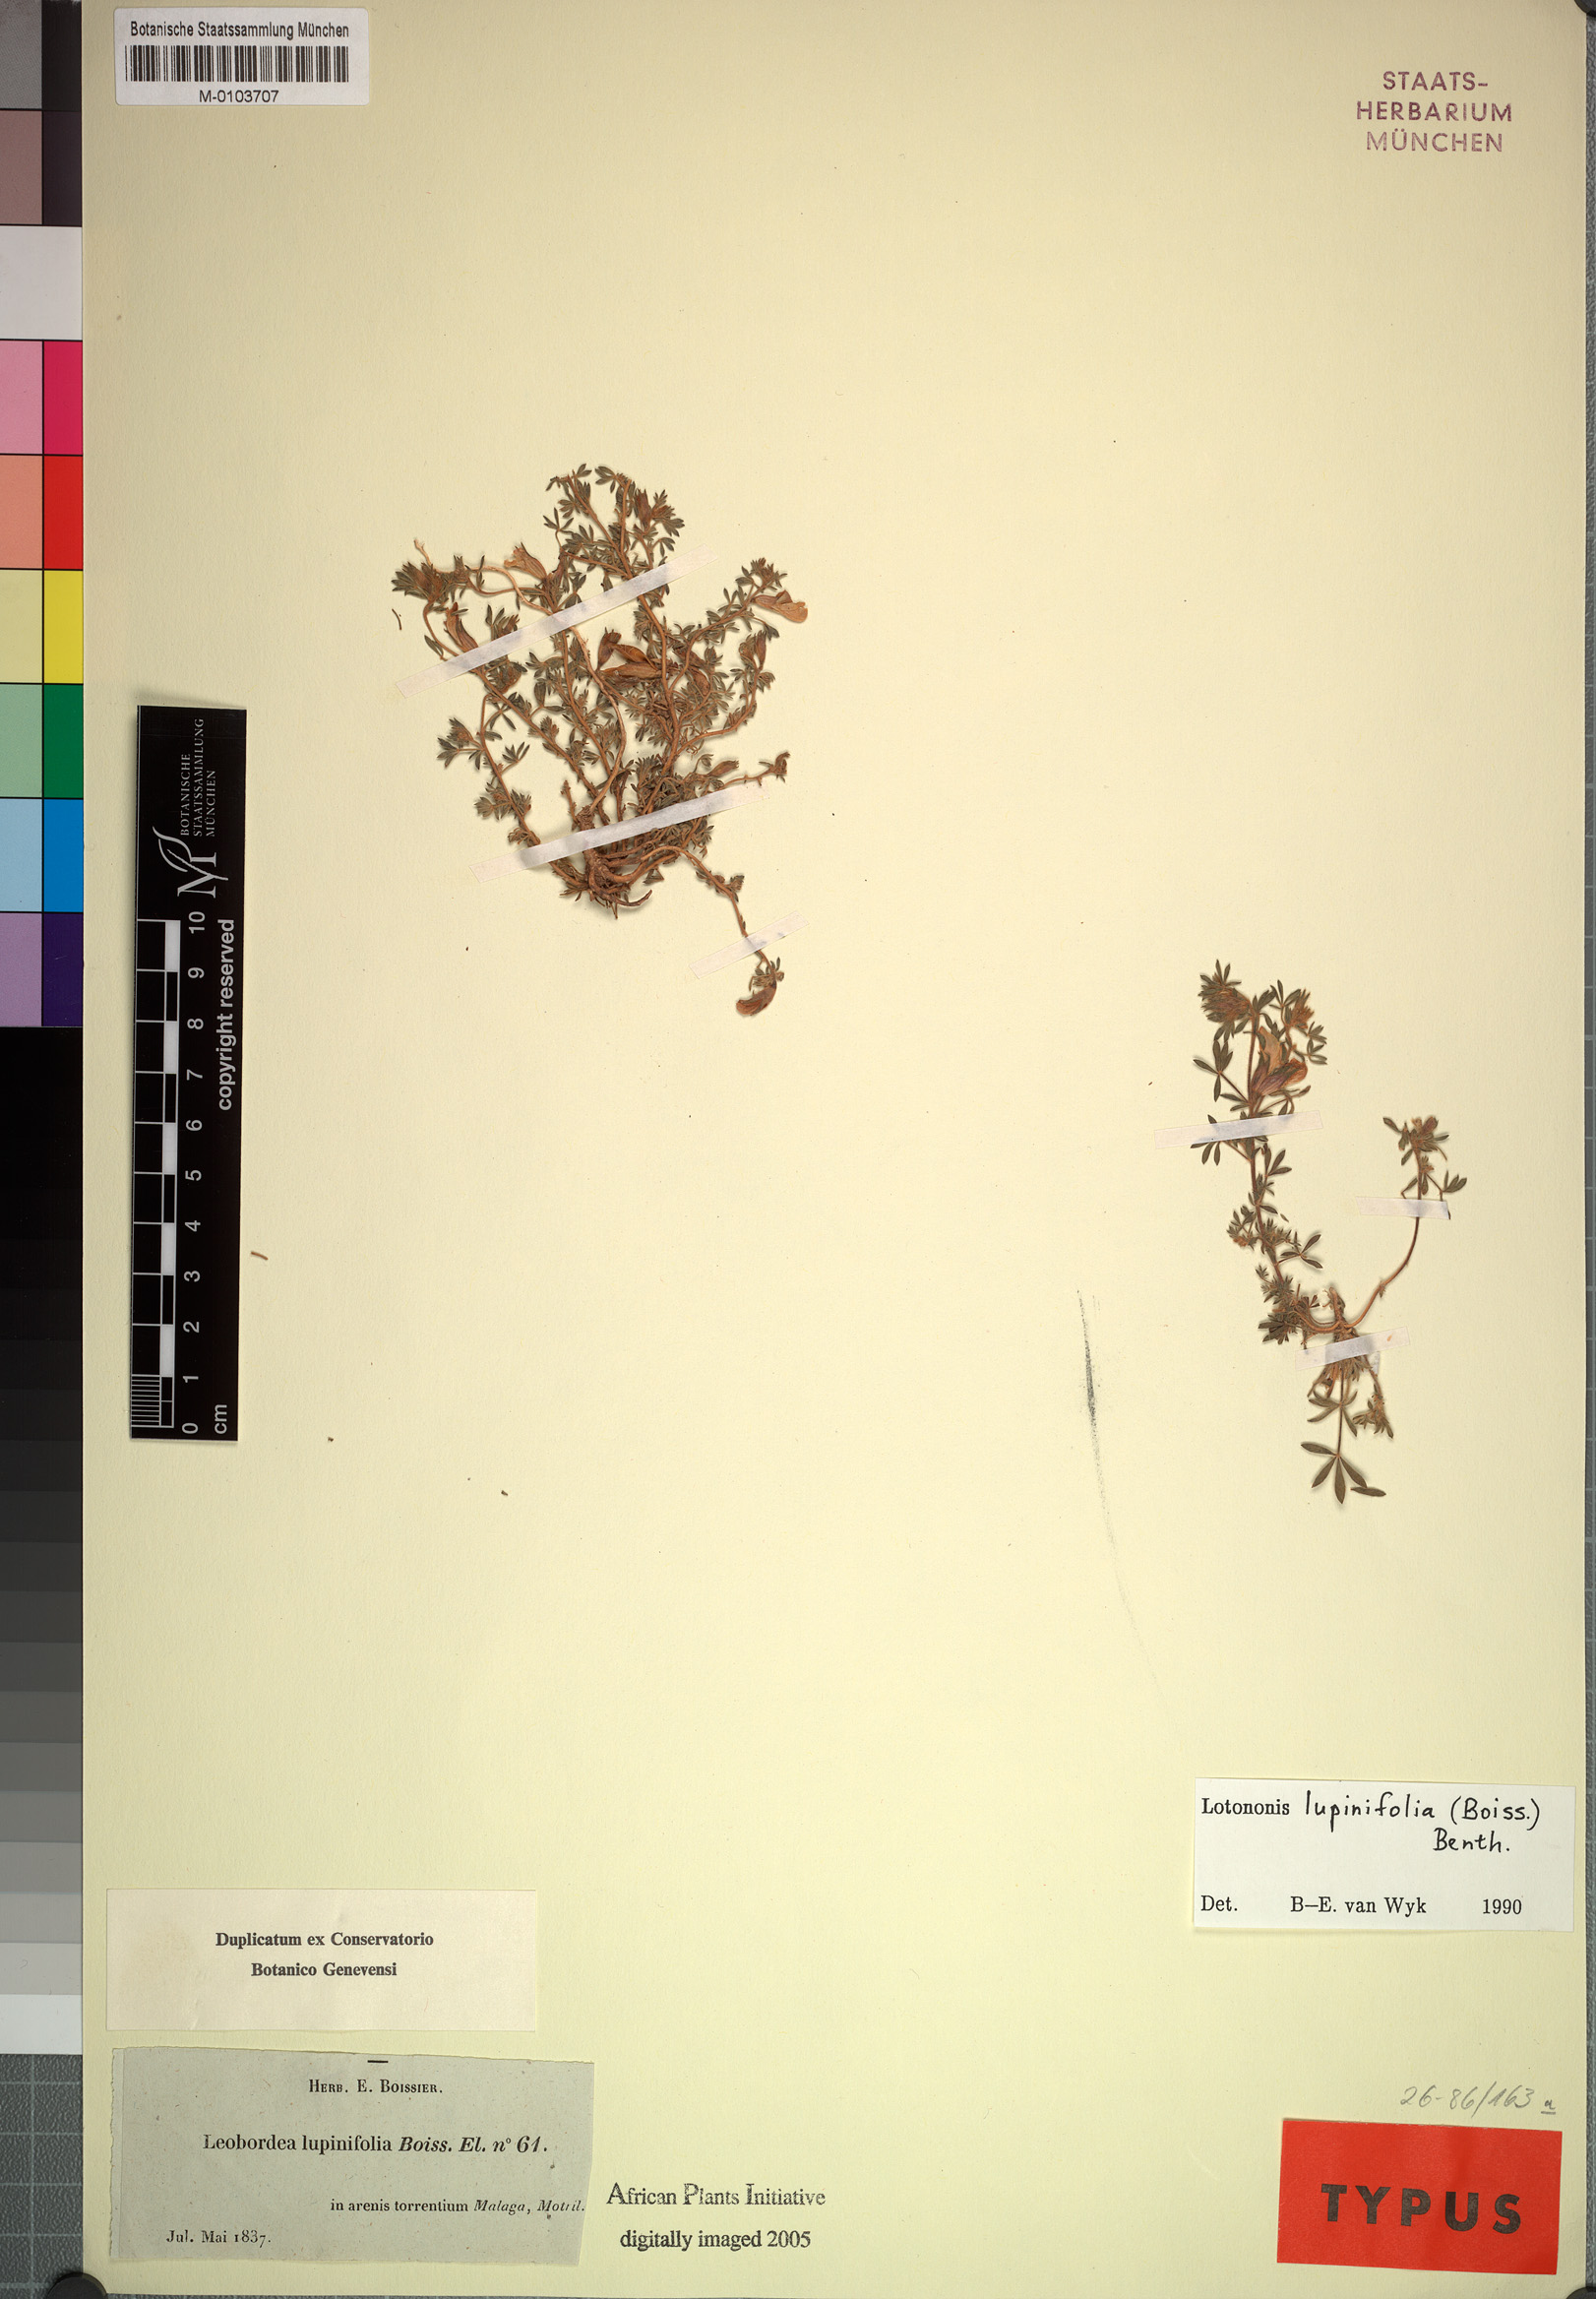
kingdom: Plantae
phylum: Tracheophyta
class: Magnoliopsida
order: Fabales
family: Fabaceae
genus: Leobordea
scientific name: Leobordea lupinifolia
